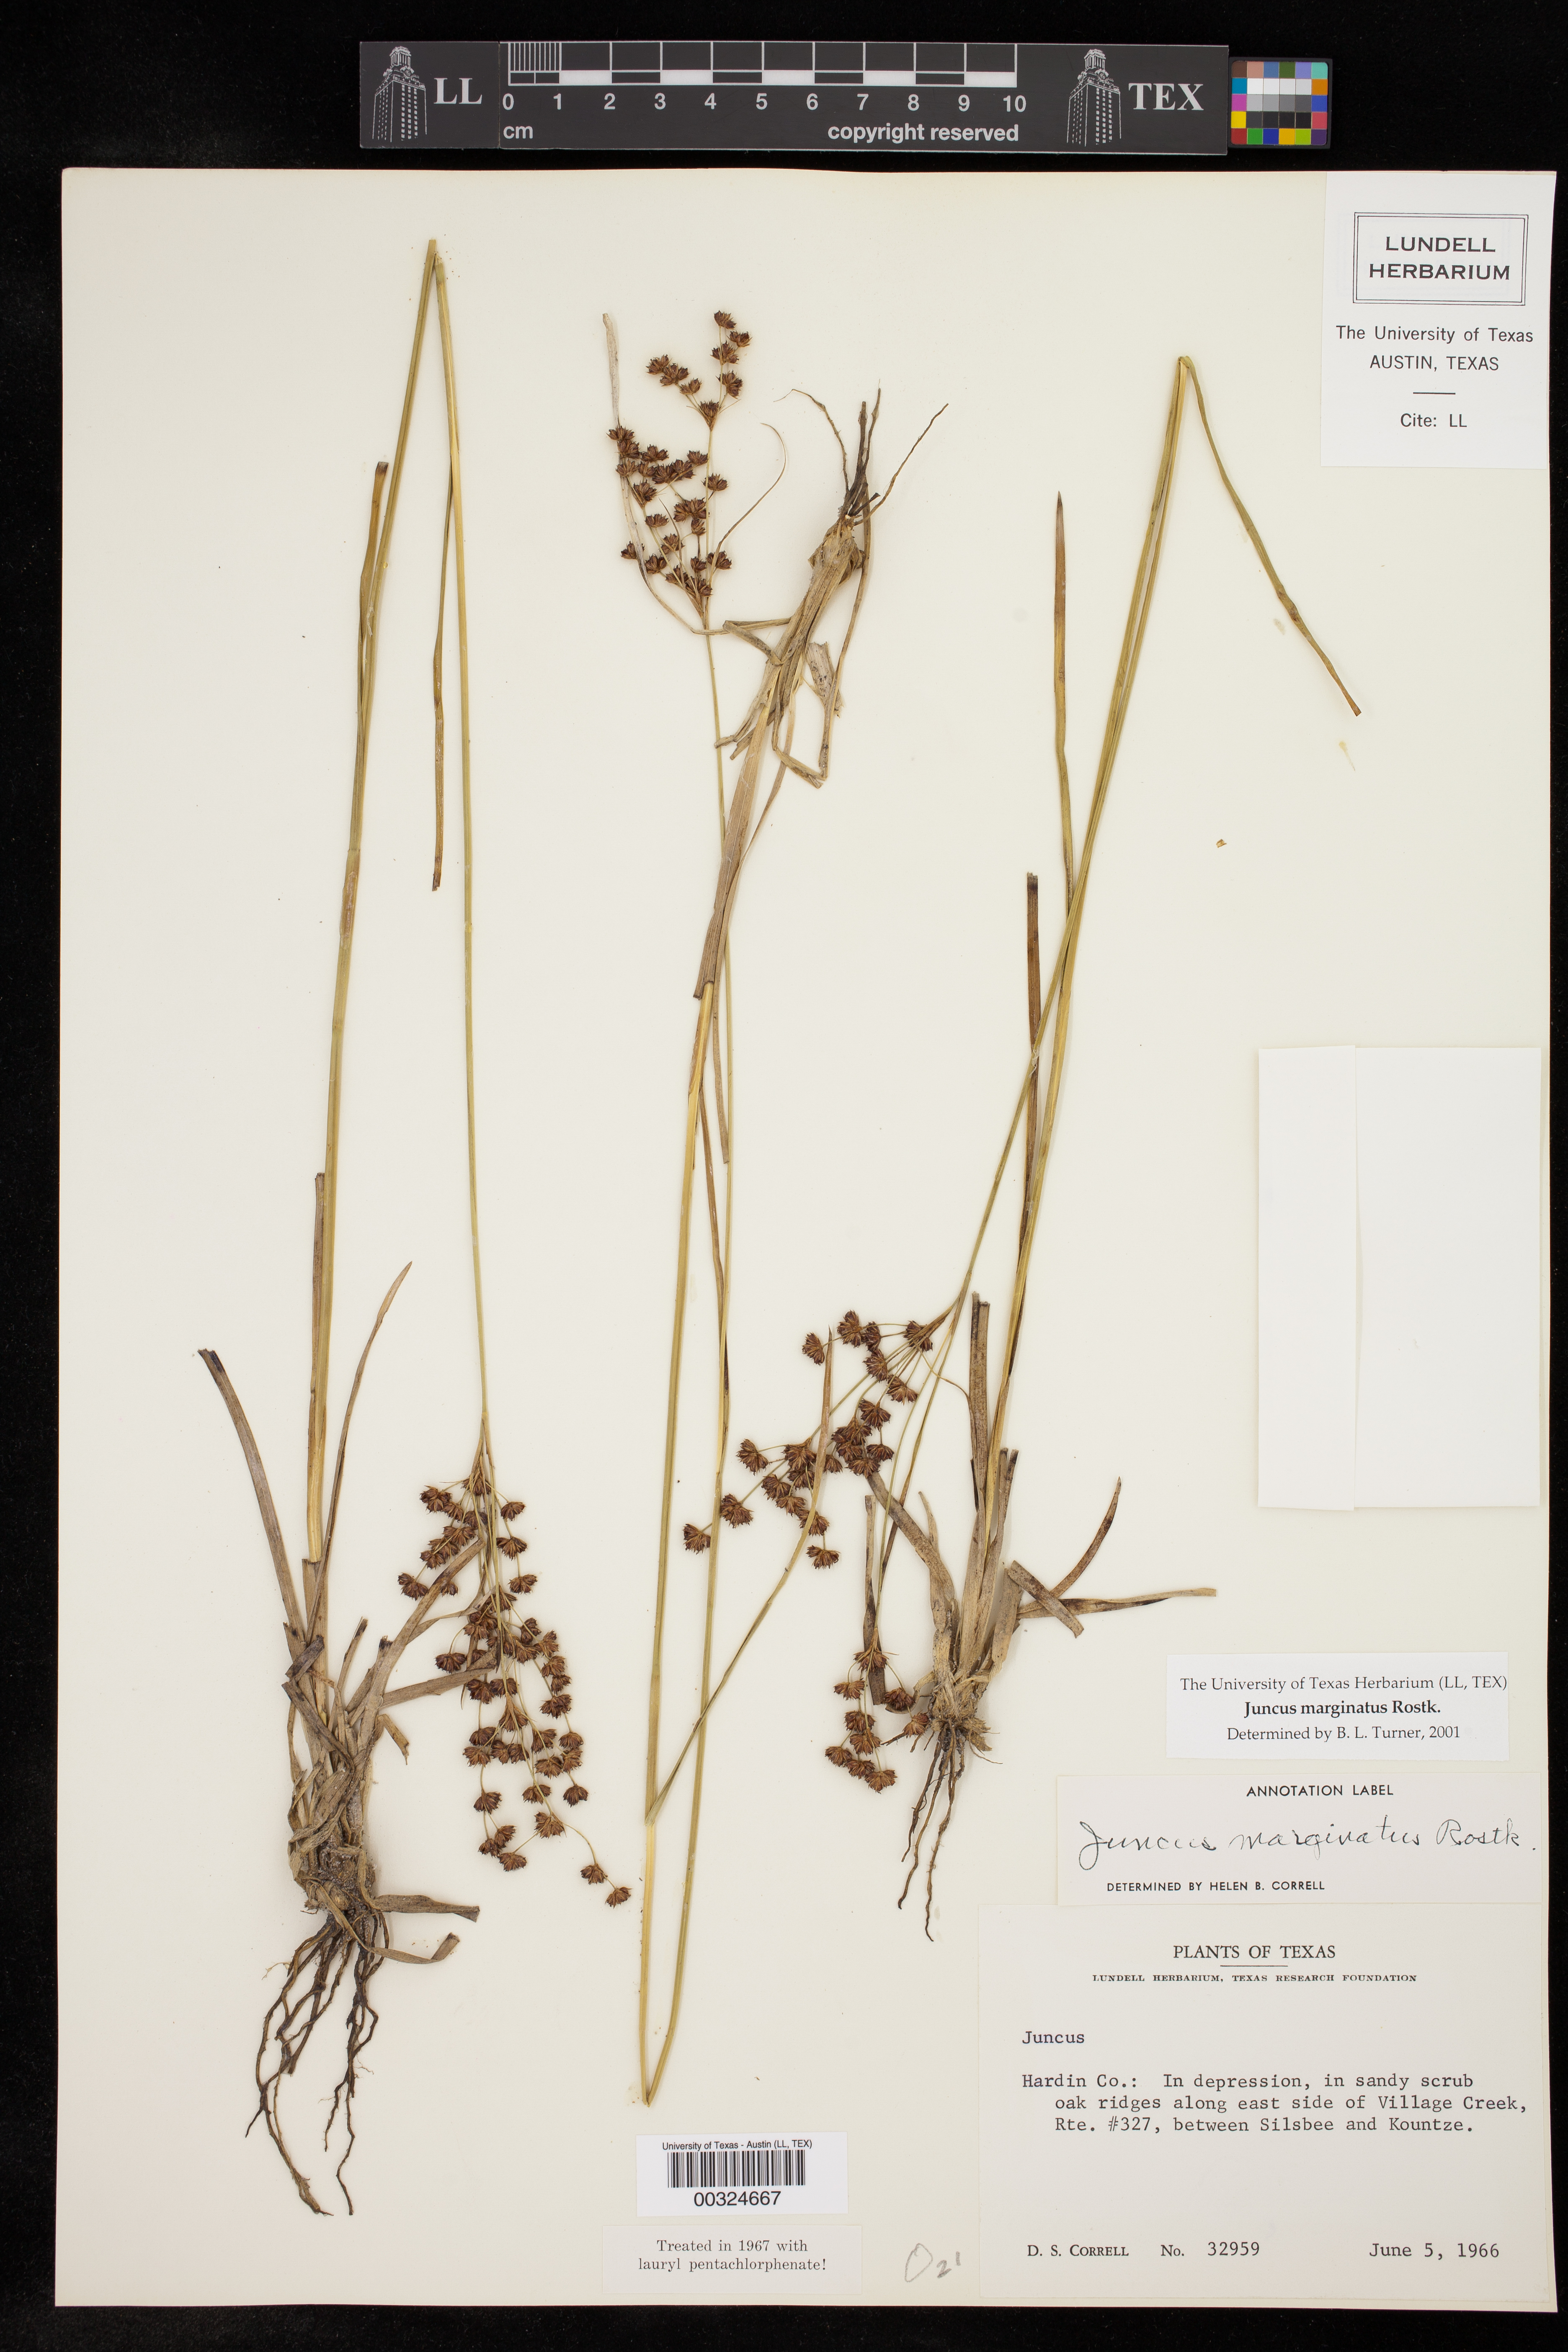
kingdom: Plantae
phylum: Tracheophyta
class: Liliopsida
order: Poales
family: Juncaceae
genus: Juncus
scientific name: Juncus marginatus
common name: Grass-leaf rush
